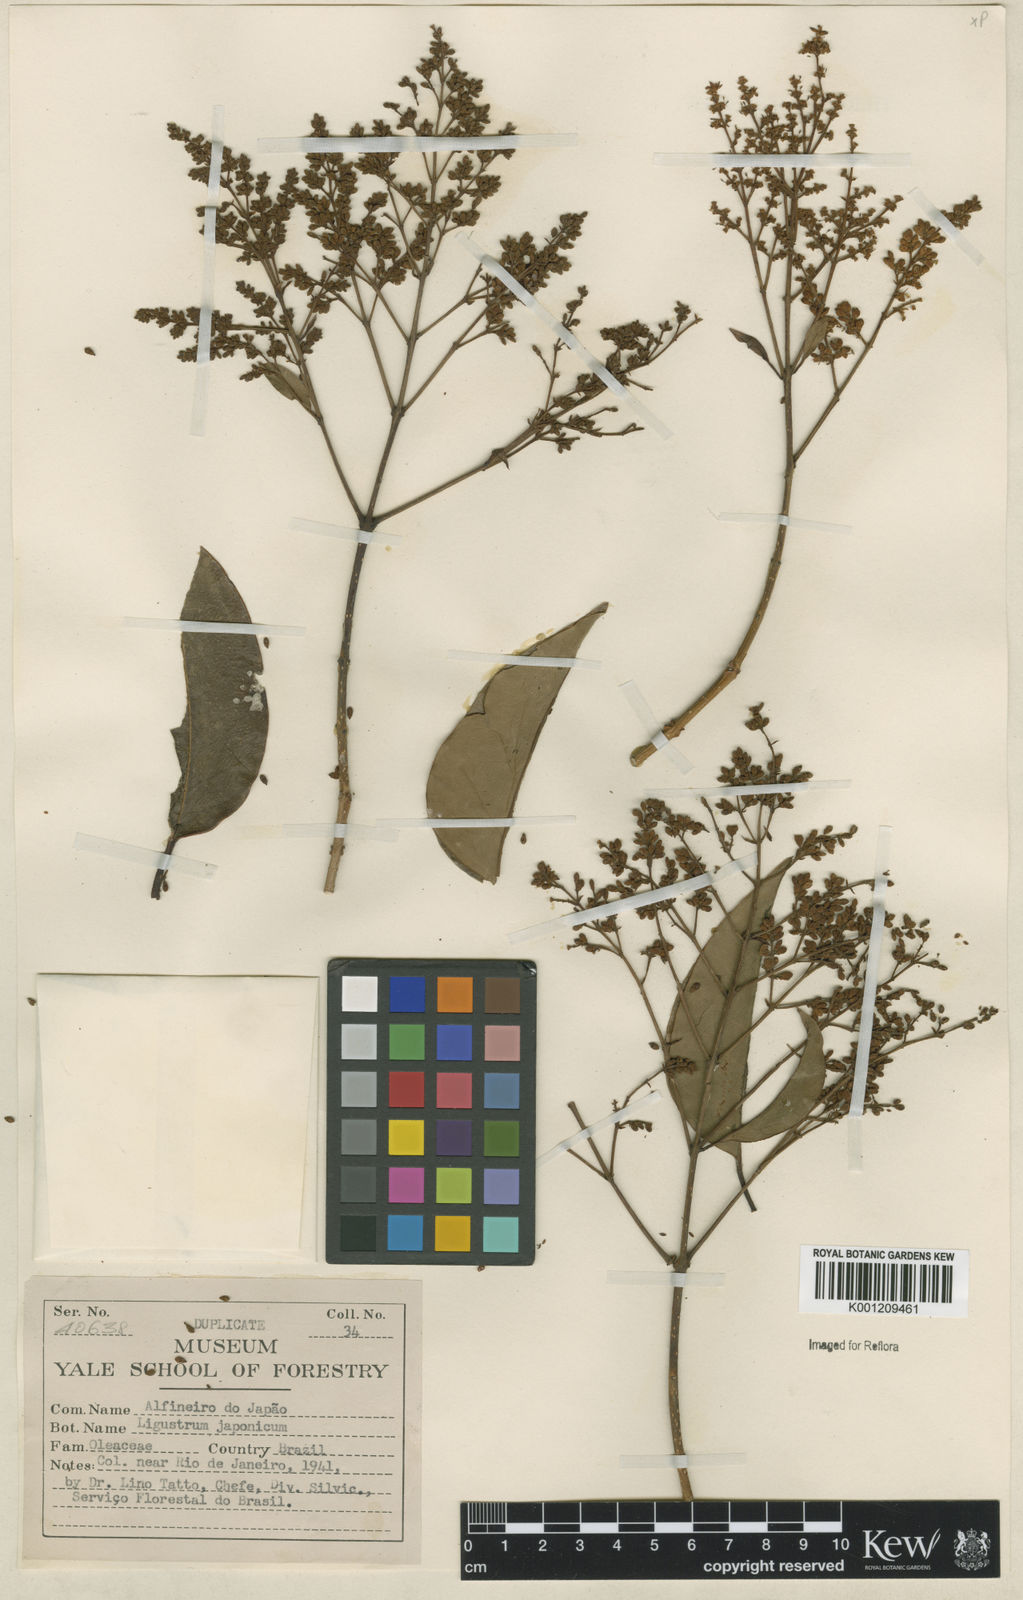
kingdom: Plantae
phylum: Tracheophyta
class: Magnoliopsida
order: Lamiales
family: Oleaceae
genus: Ligustrum
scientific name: Ligustrum japonicum
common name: Japanese privet
